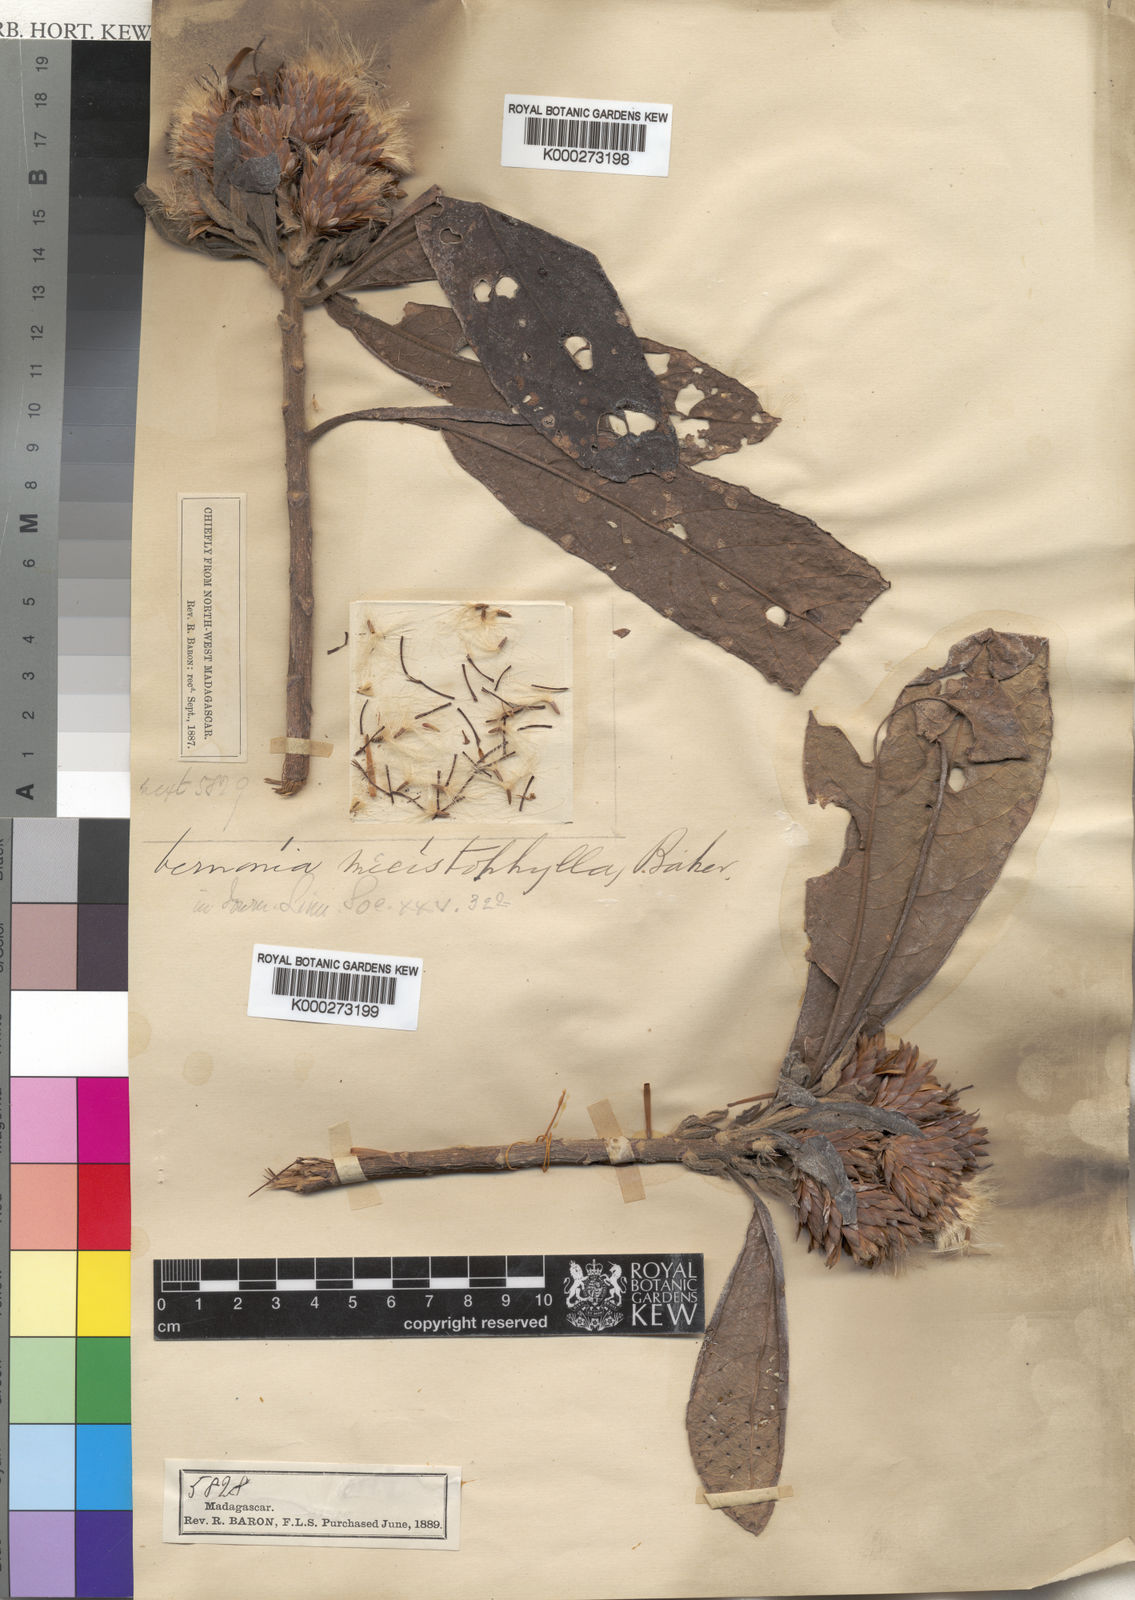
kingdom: Plantae
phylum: Tracheophyta
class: Magnoliopsida
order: Asterales
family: Asteraceae
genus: Vernonia
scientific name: Vernonia mecistophylla
